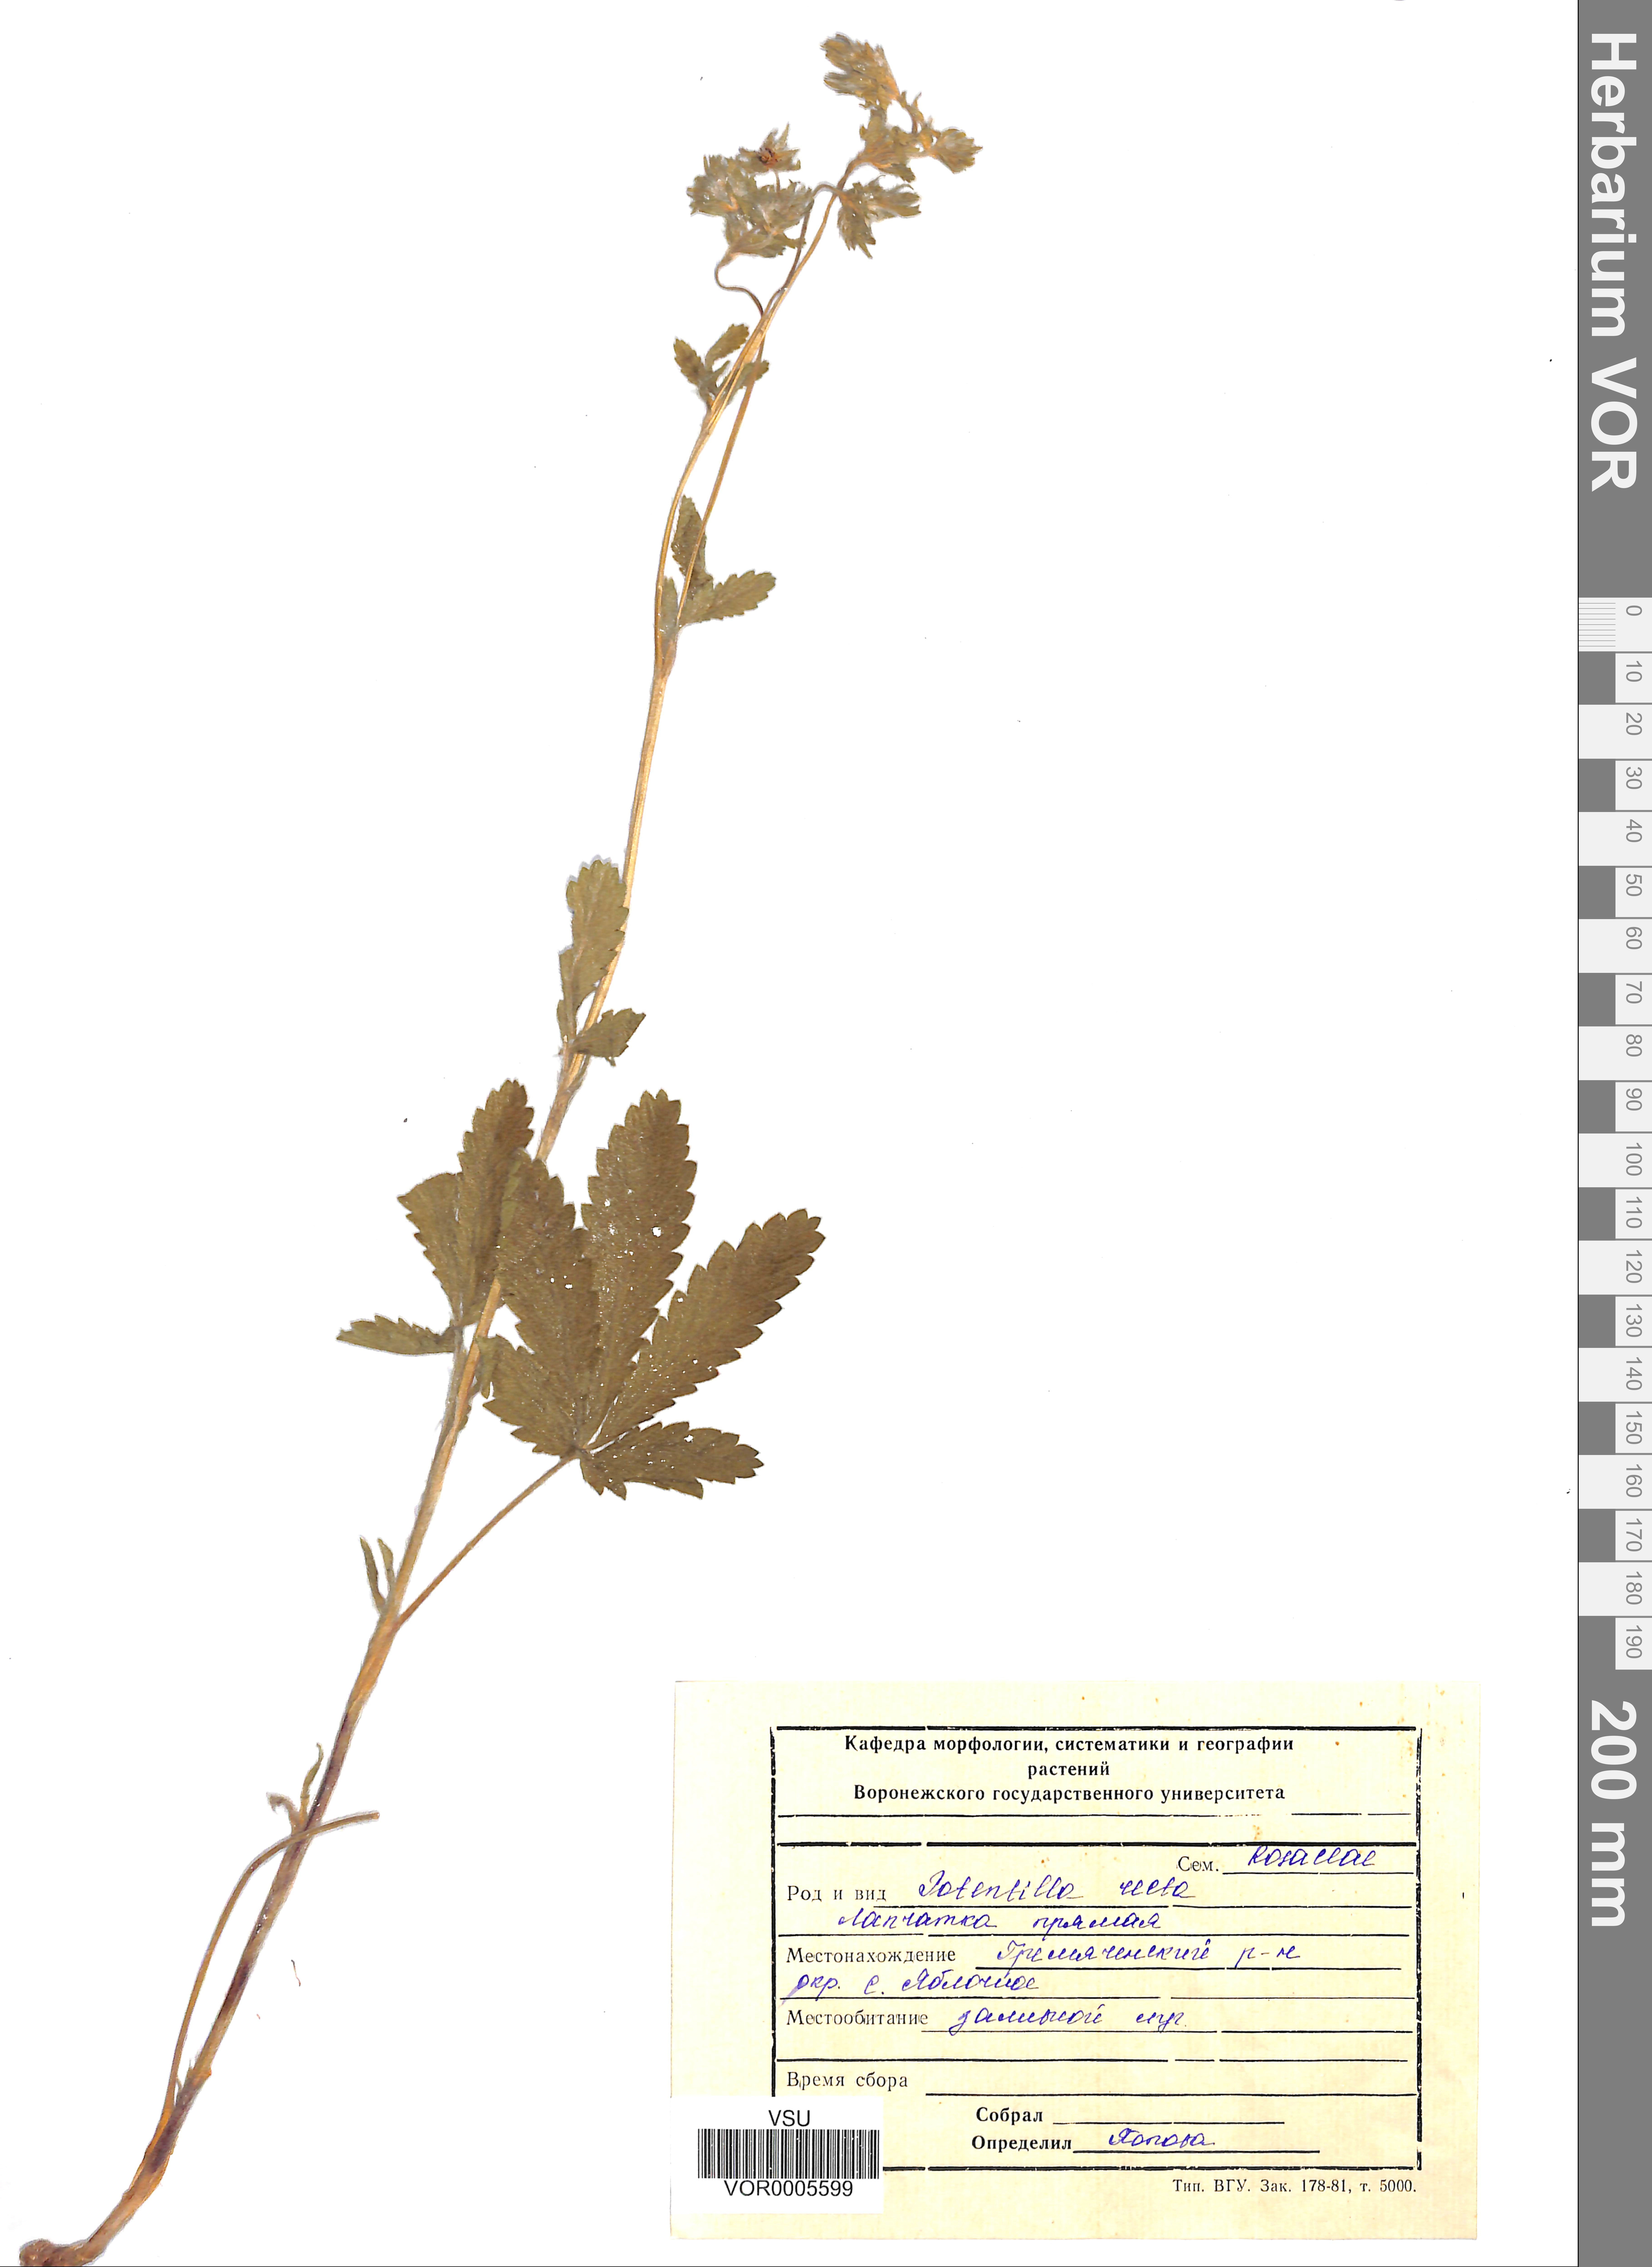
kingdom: Plantae
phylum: Tracheophyta
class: Magnoliopsida
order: Rosales
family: Rosaceae
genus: Potentilla
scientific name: Potentilla recta
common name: Sulphur cinquefoil
